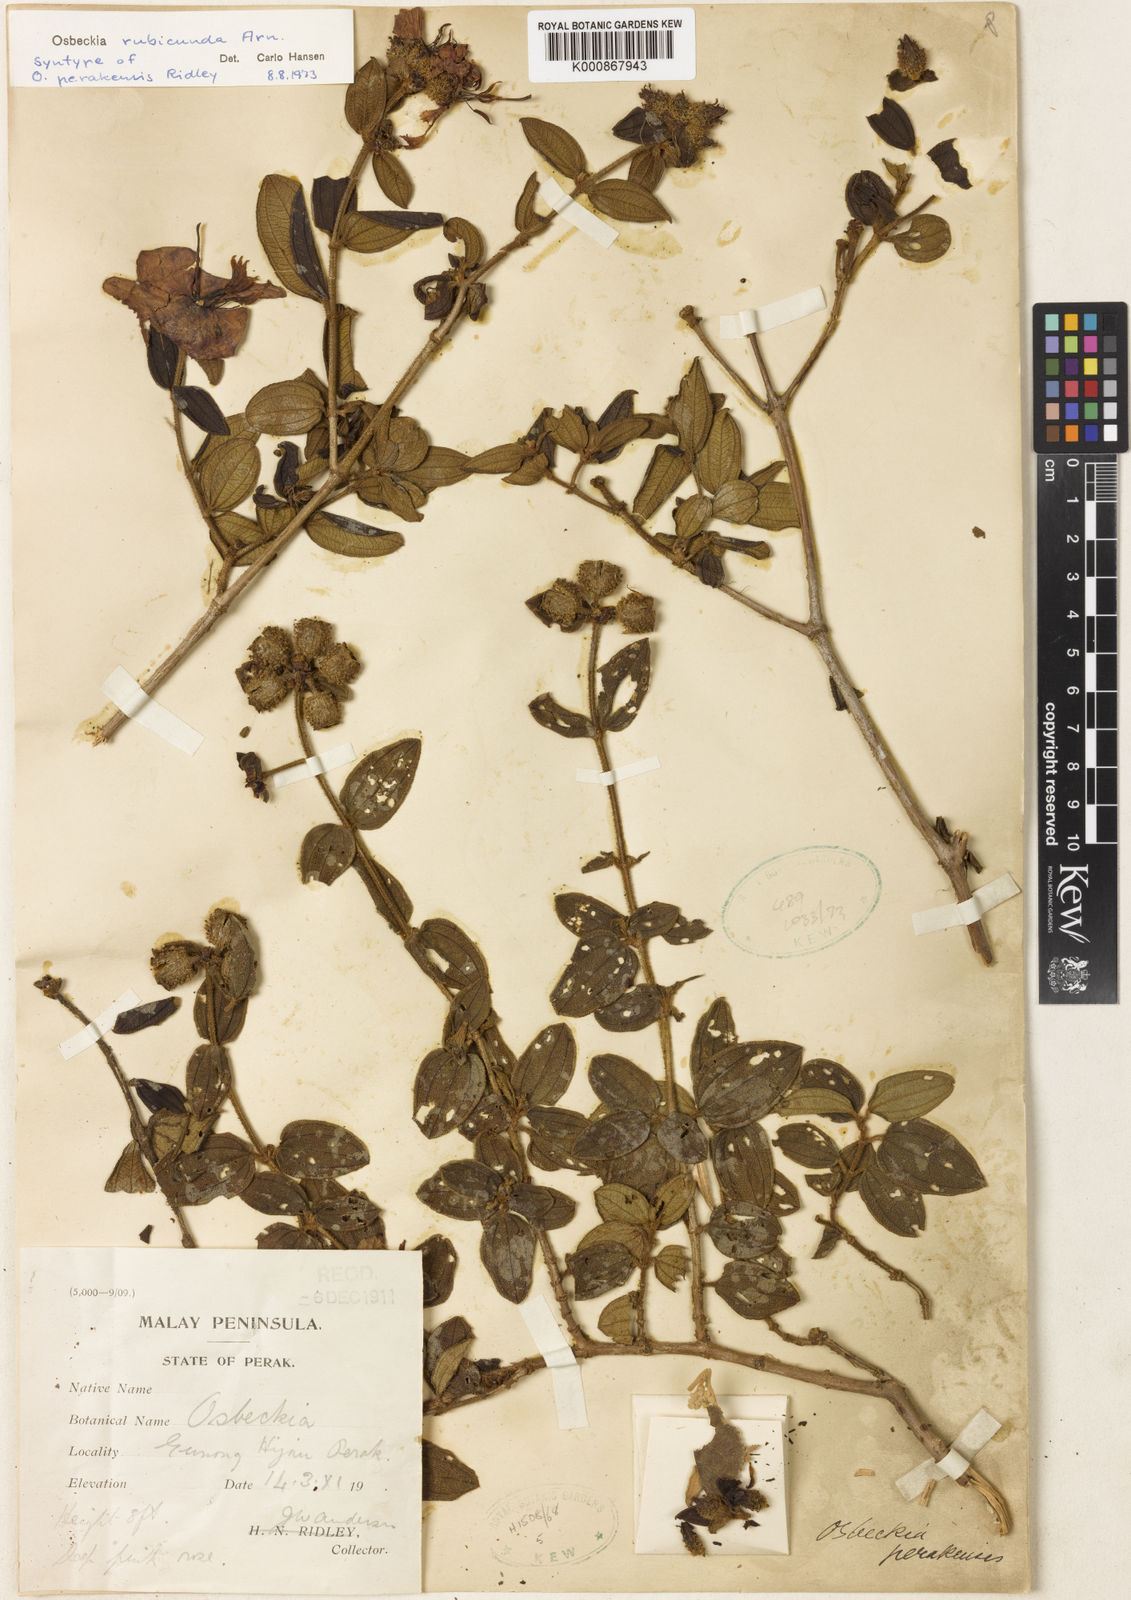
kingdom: Plantae
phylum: Tracheophyta
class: Magnoliopsida
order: Myrtales
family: Melastomataceae
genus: Osbeckia
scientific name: Osbeckia rubicunda
